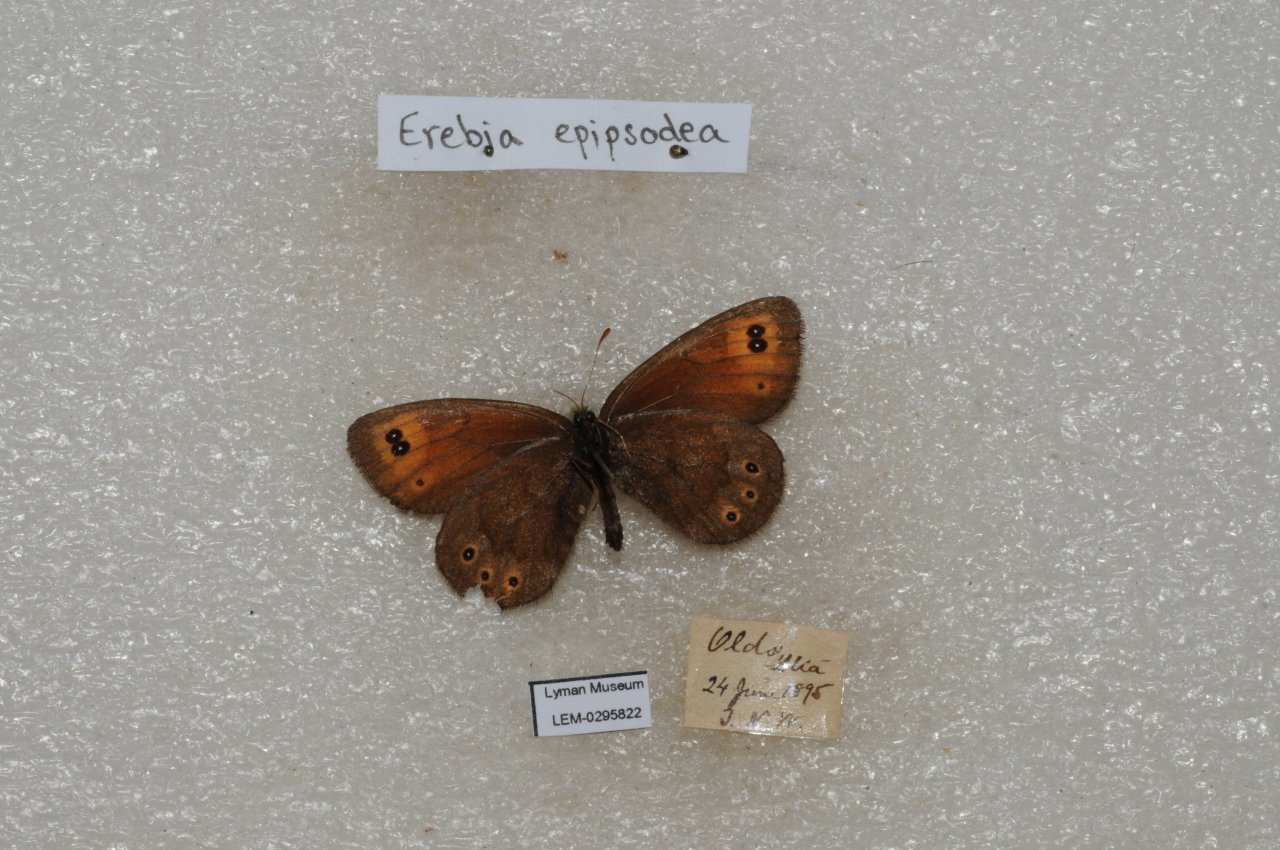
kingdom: Animalia
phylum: Arthropoda
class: Insecta
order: Lepidoptera
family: Nymphalidae
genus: Erebia
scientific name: Erebia epipsodea
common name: Common Alpine
